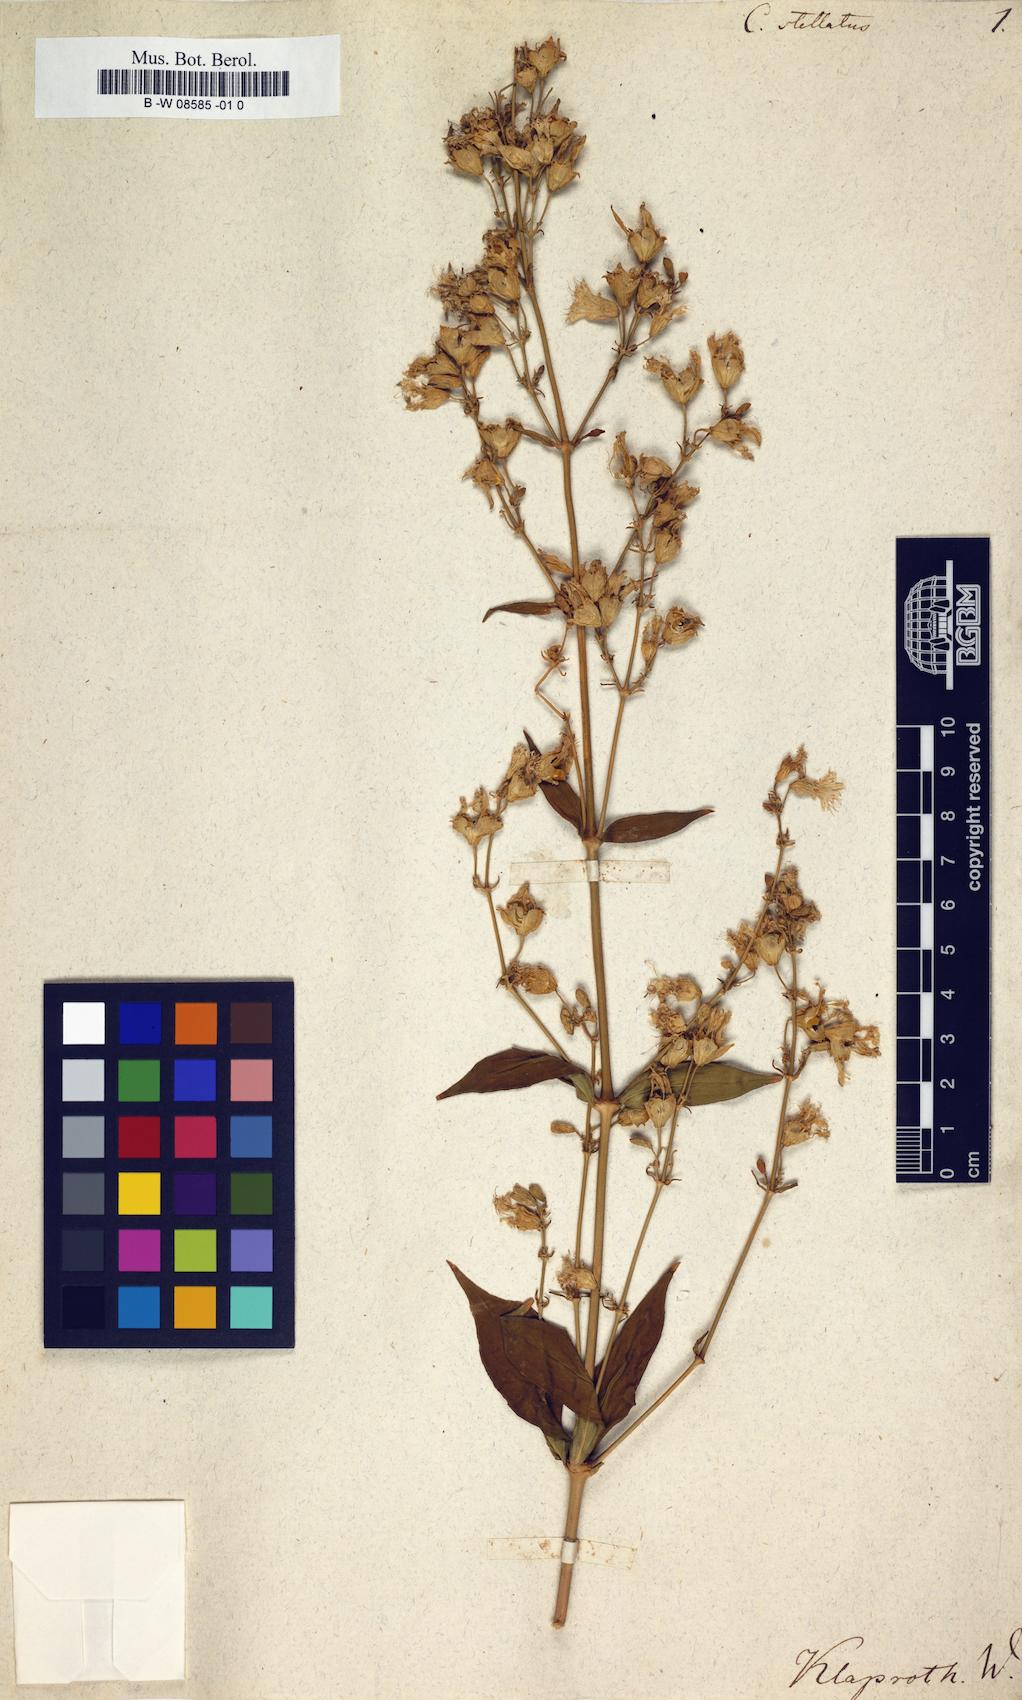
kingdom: Plantae
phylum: Tracheophyta
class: Magnoliopsida
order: Caryophyllales
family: Caryophyllaceae
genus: Silene
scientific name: Silene stellata
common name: Starry campion
